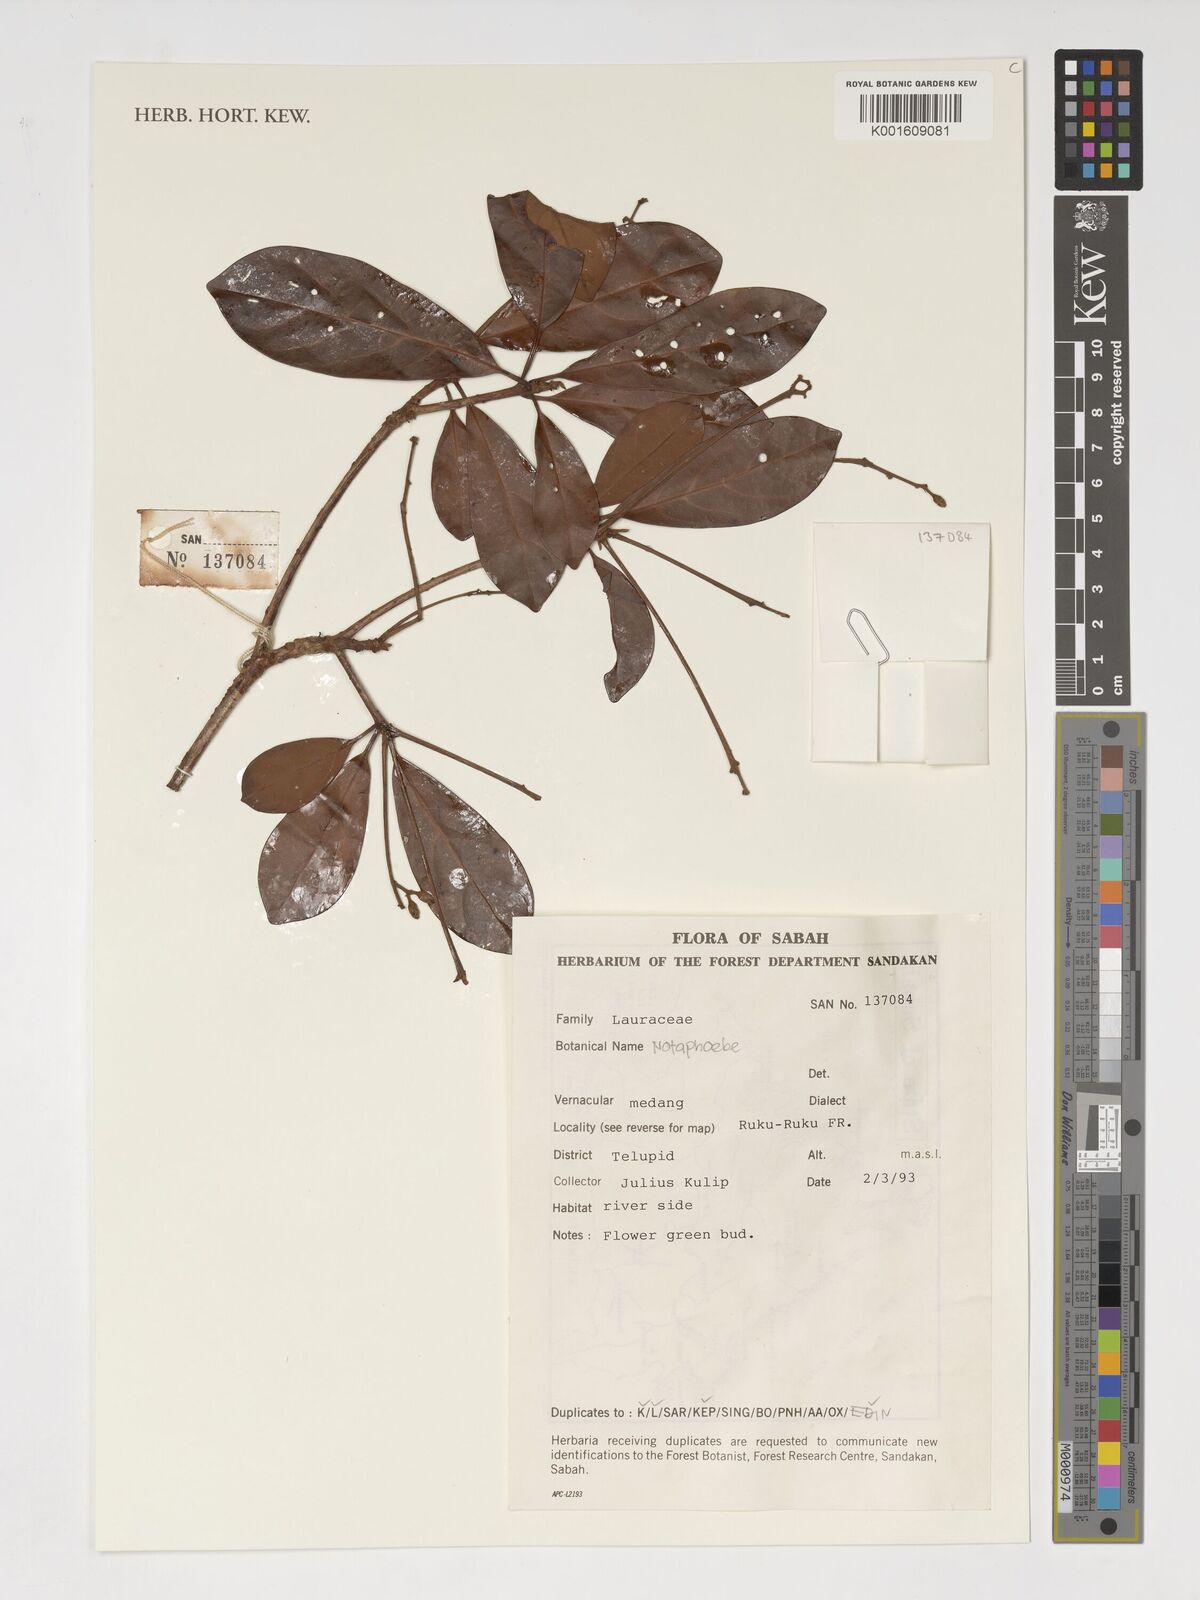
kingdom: Plantae
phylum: Tracheophyta
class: Magnoliopsida
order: Laurales
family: Lauraceae
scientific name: Lauraceae
